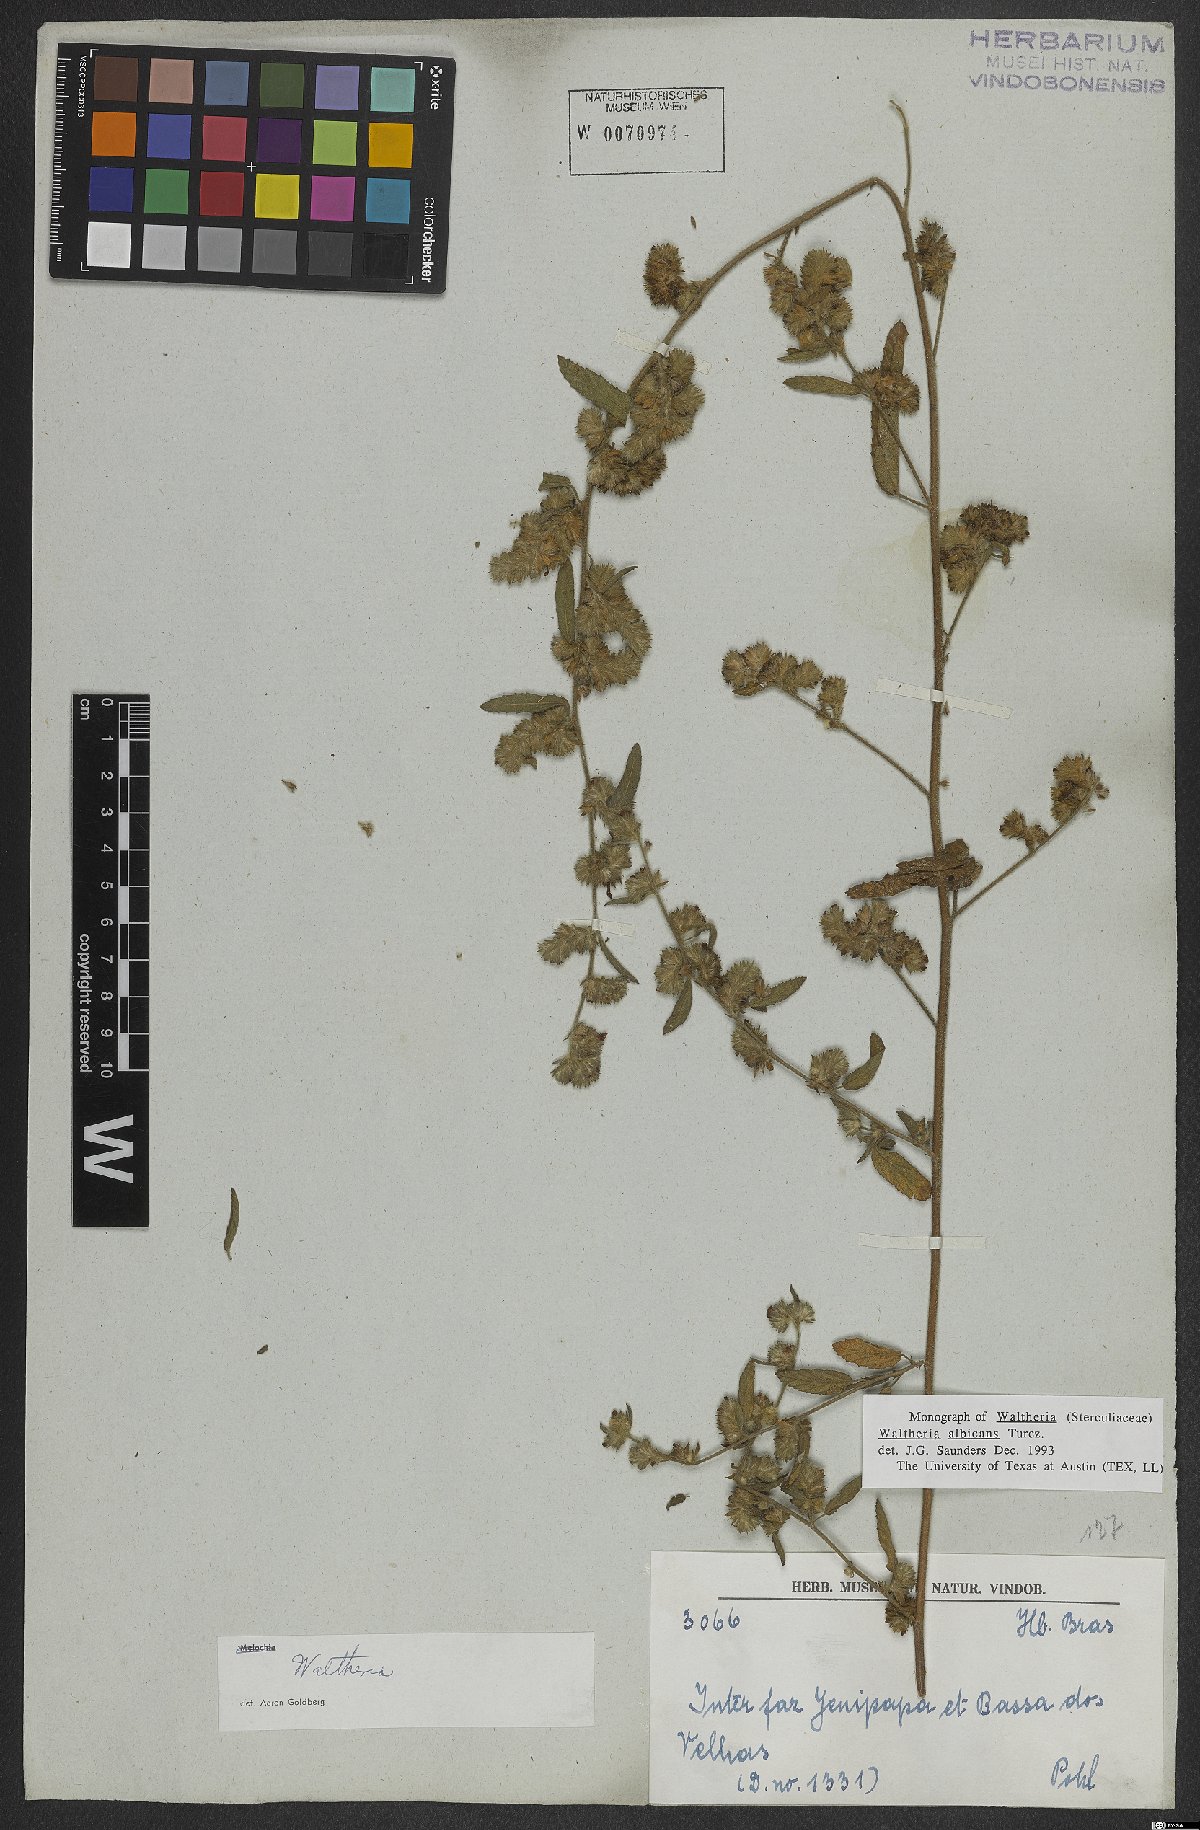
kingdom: Plantae
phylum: Tracheophyta
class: Magnoliopsida
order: Malvales
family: Malvaceae
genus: Waltheria
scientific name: Waltheria albicans
